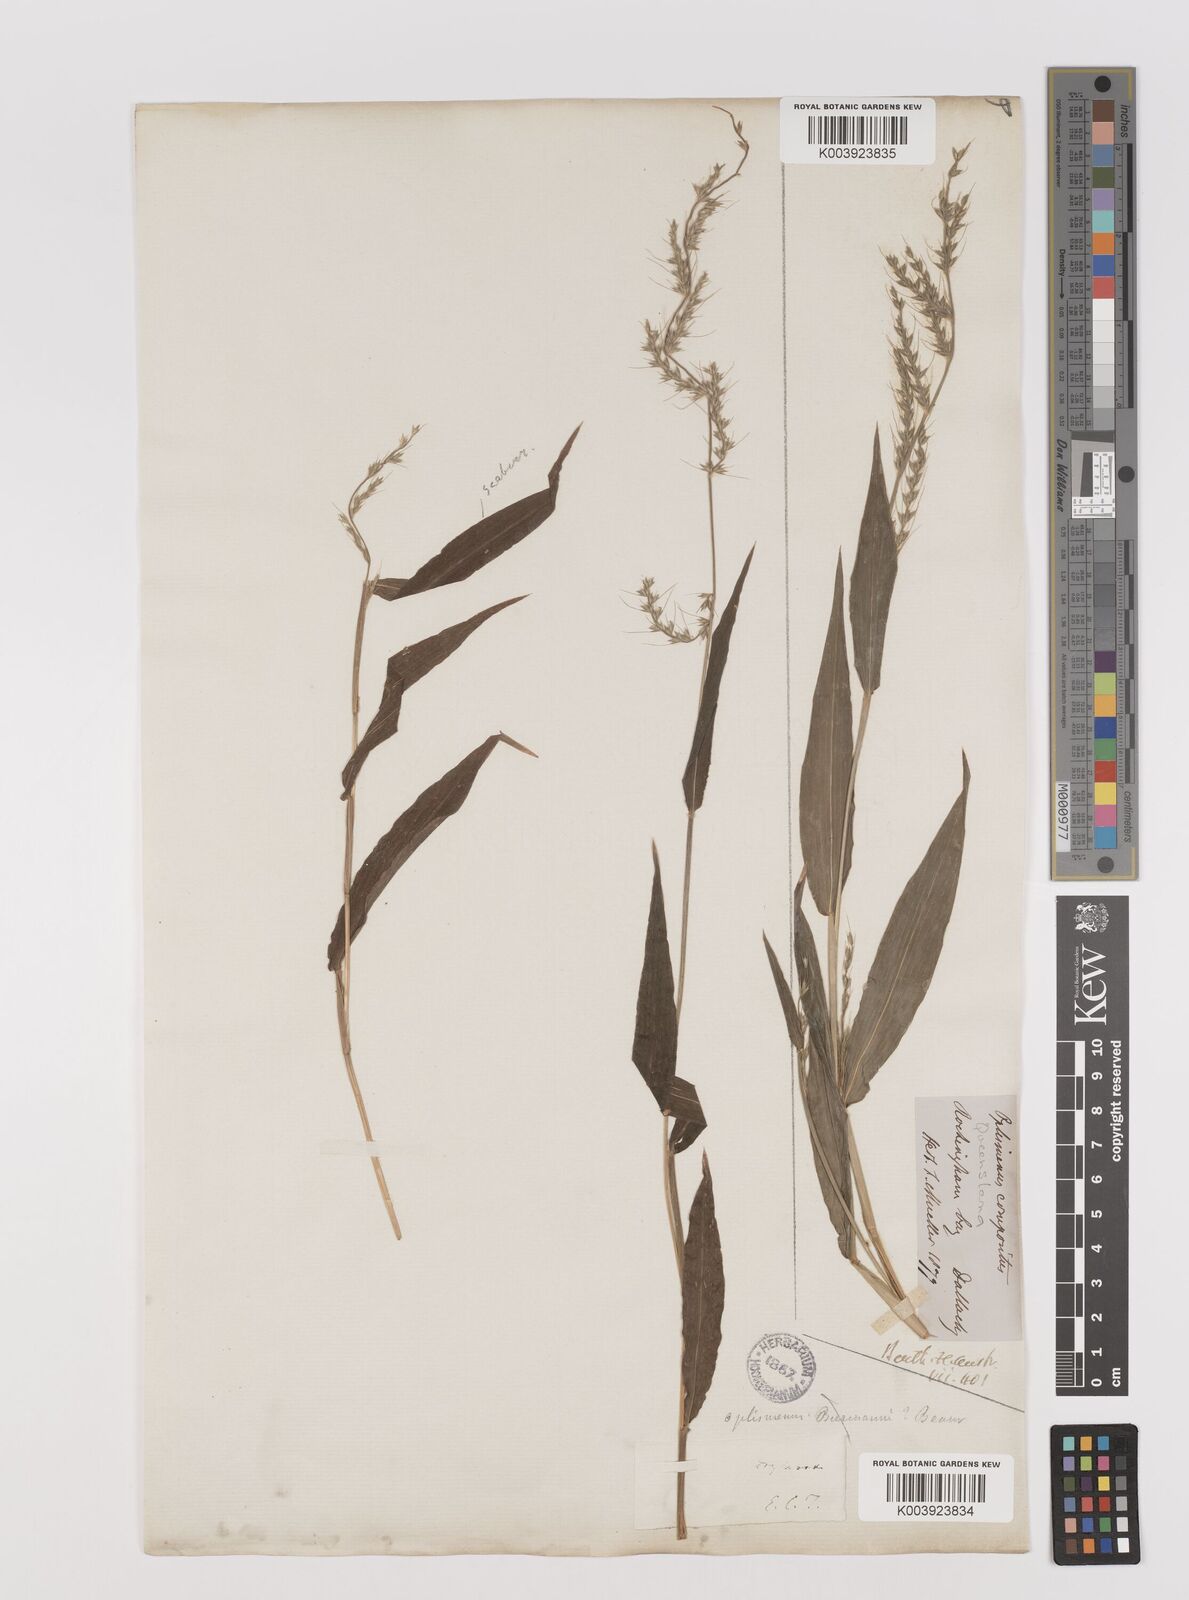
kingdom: Plantae
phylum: Tracheophyta
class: Liliopsida
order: Poales
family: Poaceae
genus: Oplismenus
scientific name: Oplismenus compositus
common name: Running mountain grass
